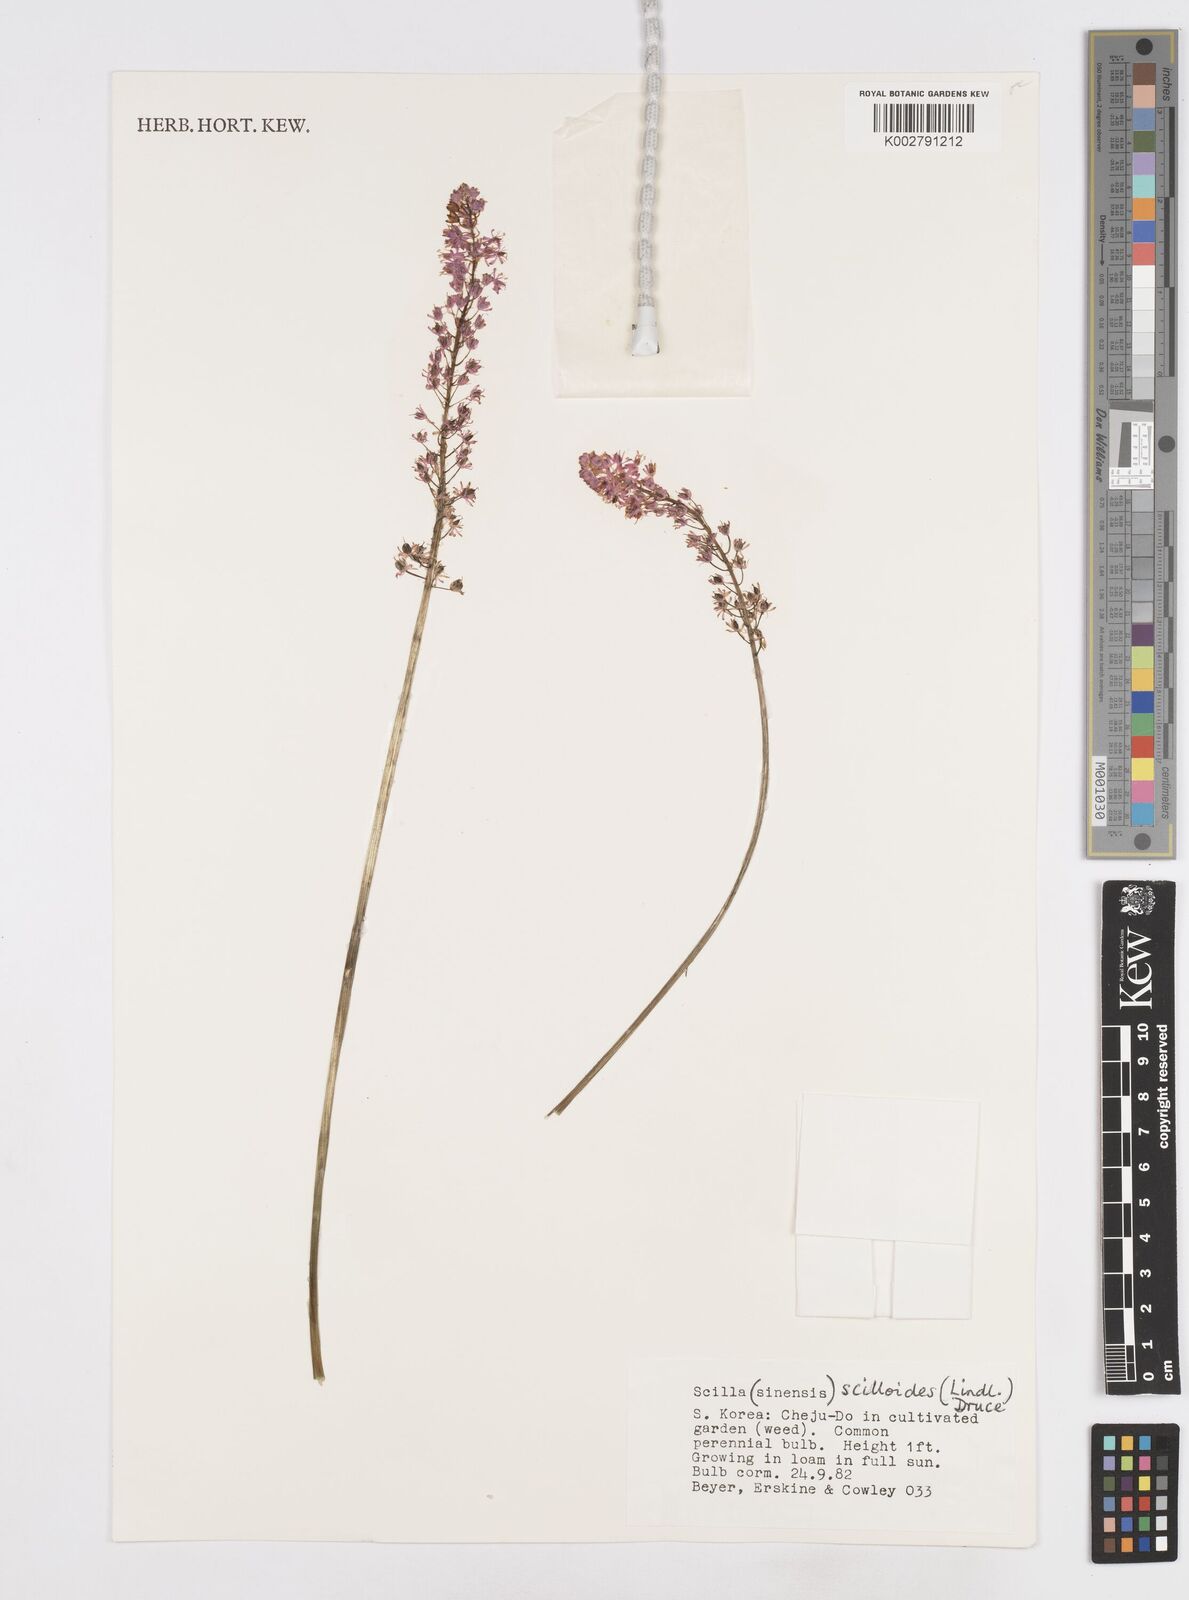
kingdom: Plantae
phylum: Tracheophyta
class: Liliopsida
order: Liliales
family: Melanthiaceae
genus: Helonias
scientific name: Helonias breviscapa
